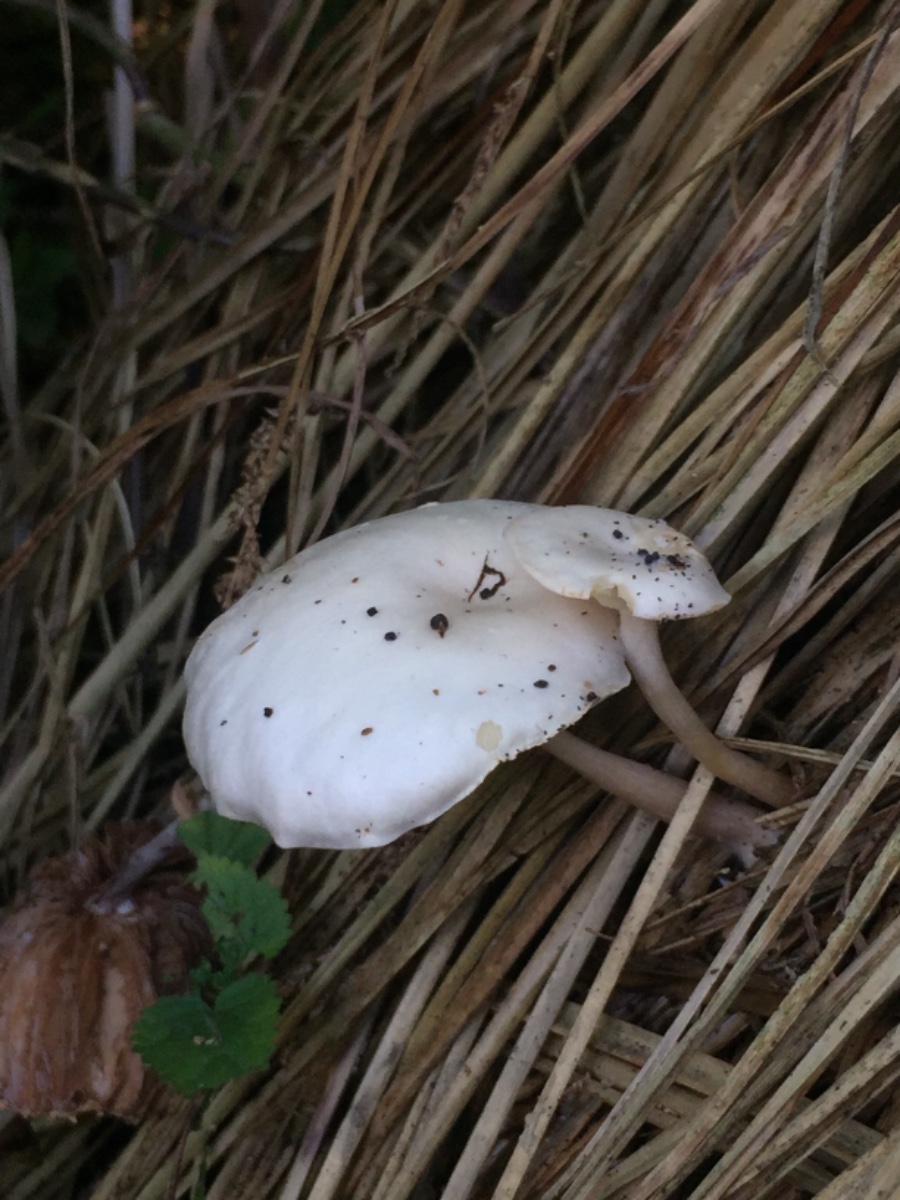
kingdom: Fungi
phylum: Basidiomycota
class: Agaricomycetes
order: Agaricales
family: Tricholomataceae
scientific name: Tricholomataceae
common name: ridderhatfamilien
